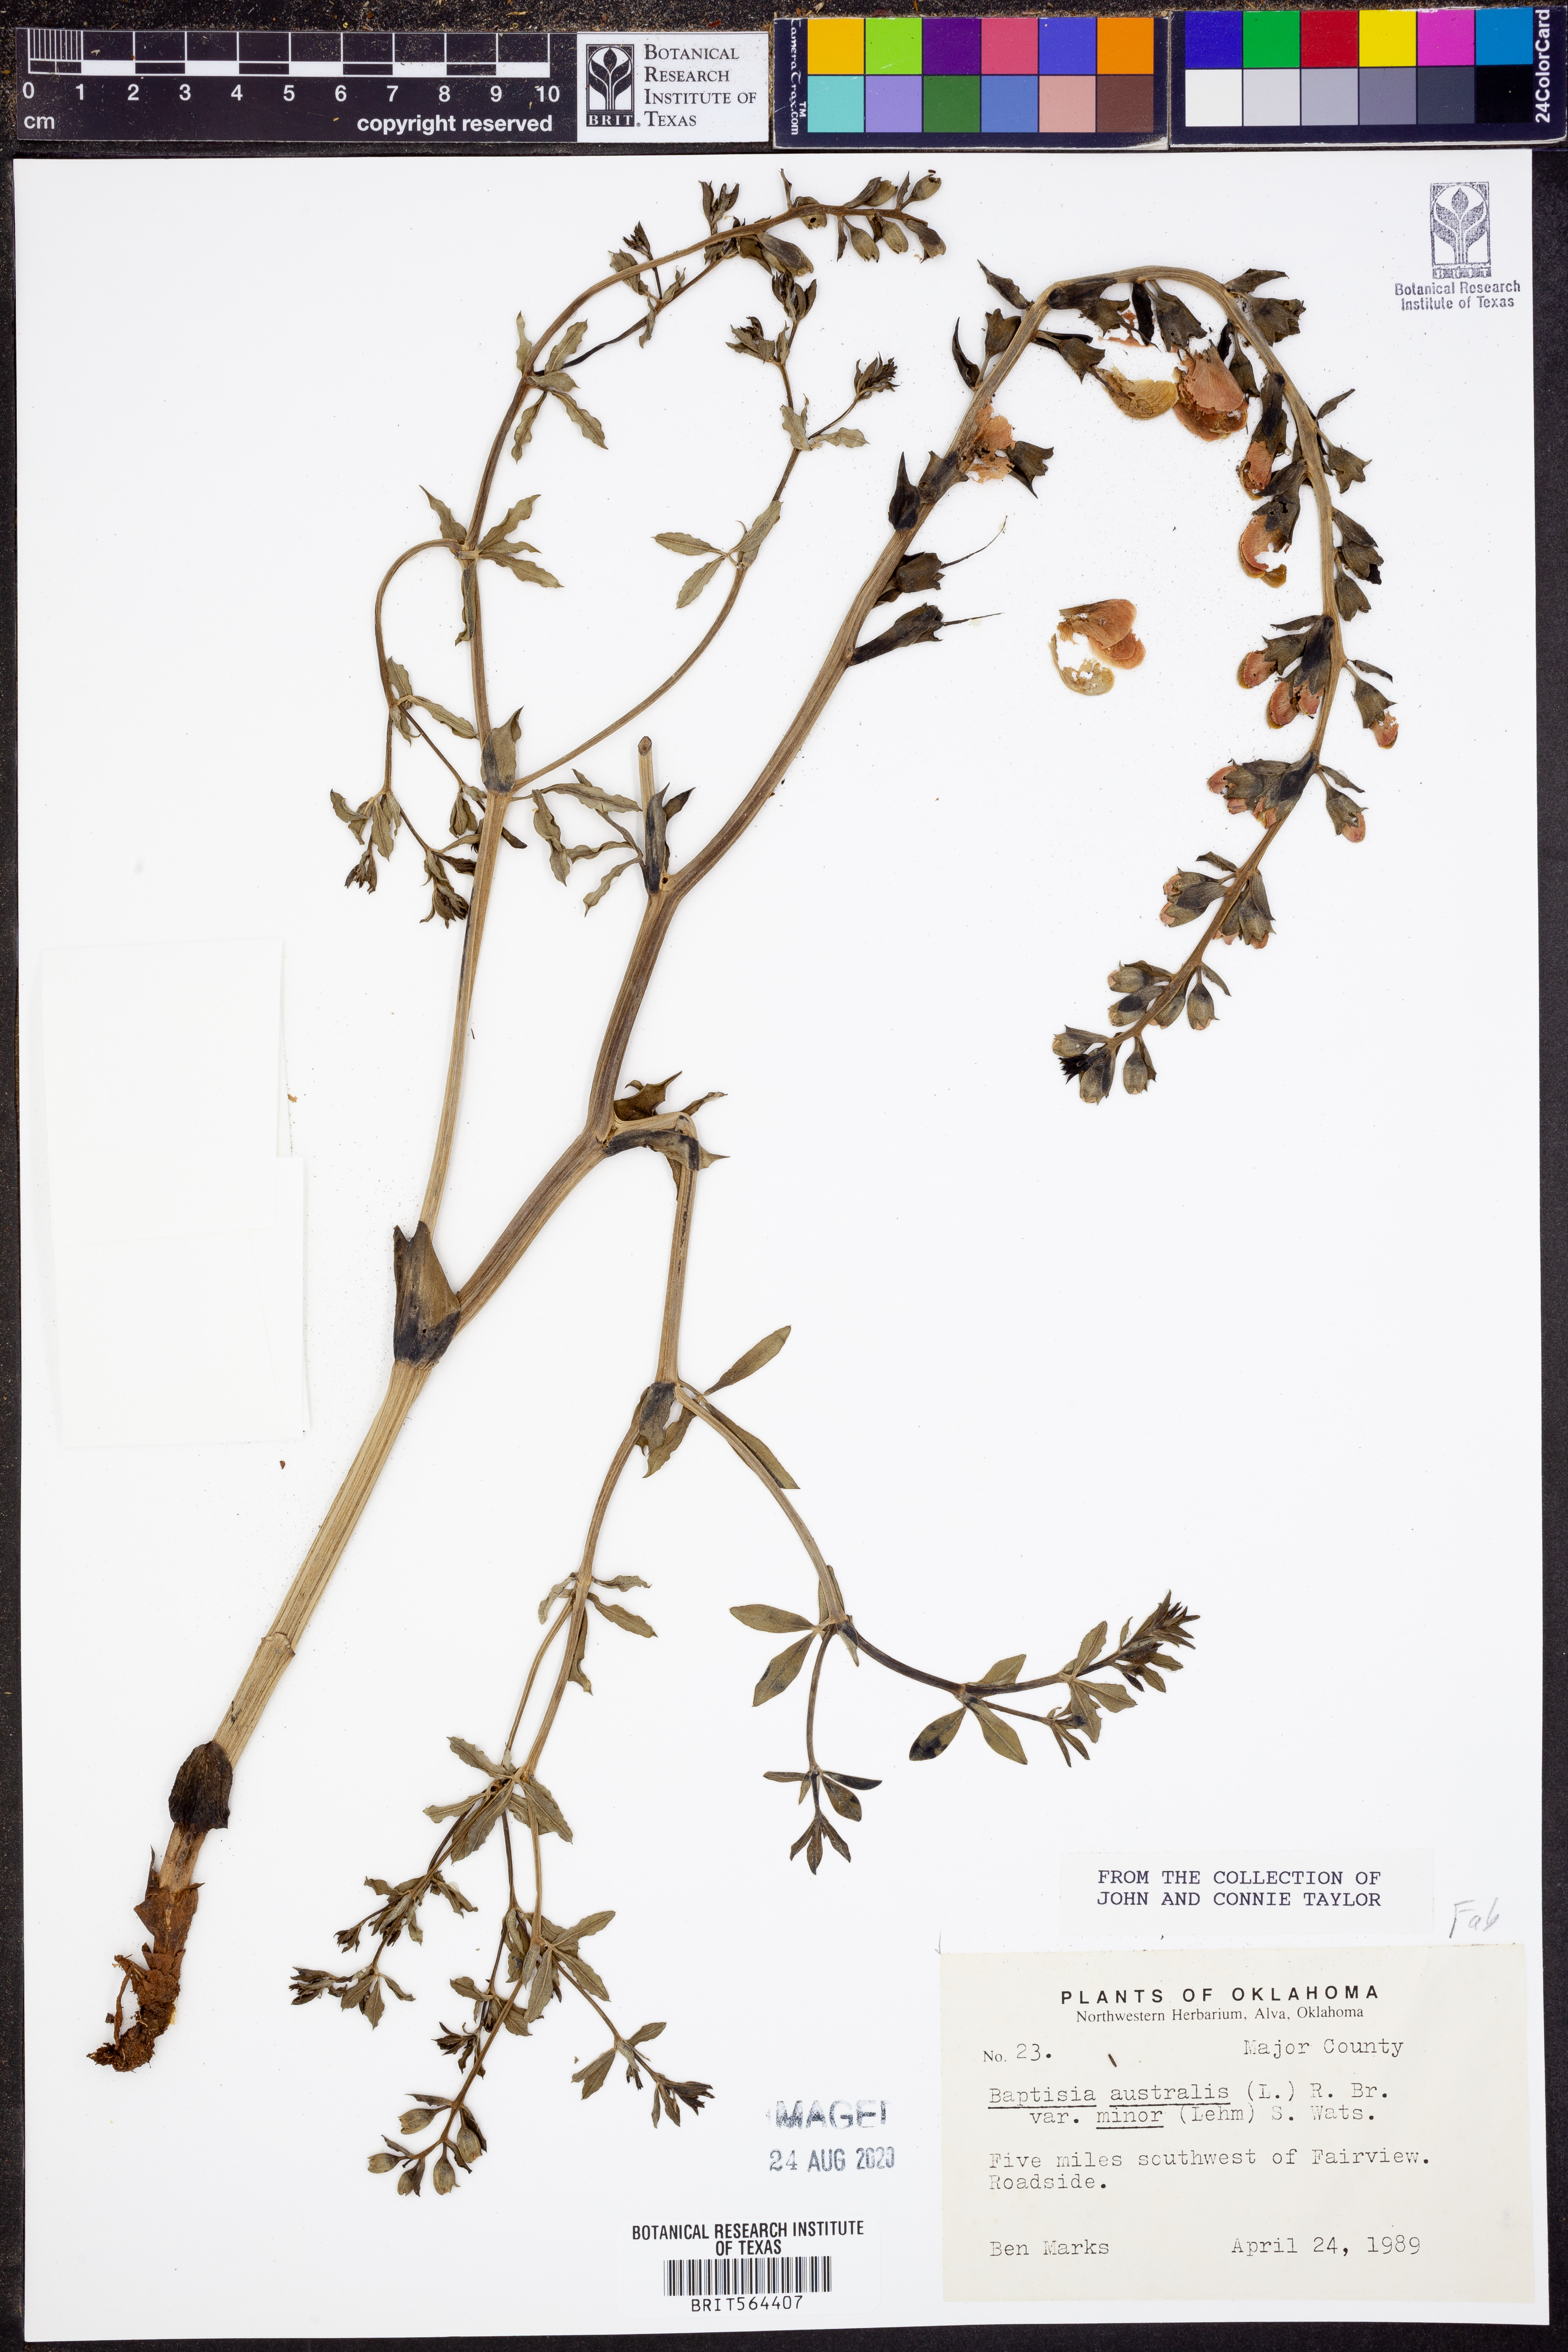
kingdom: Plantae
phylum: Tracheophyta
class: Magnoliopsida
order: Fabales
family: Fabaceae
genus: Baptisia
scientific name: Baptisia australis
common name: Blue false indigo
